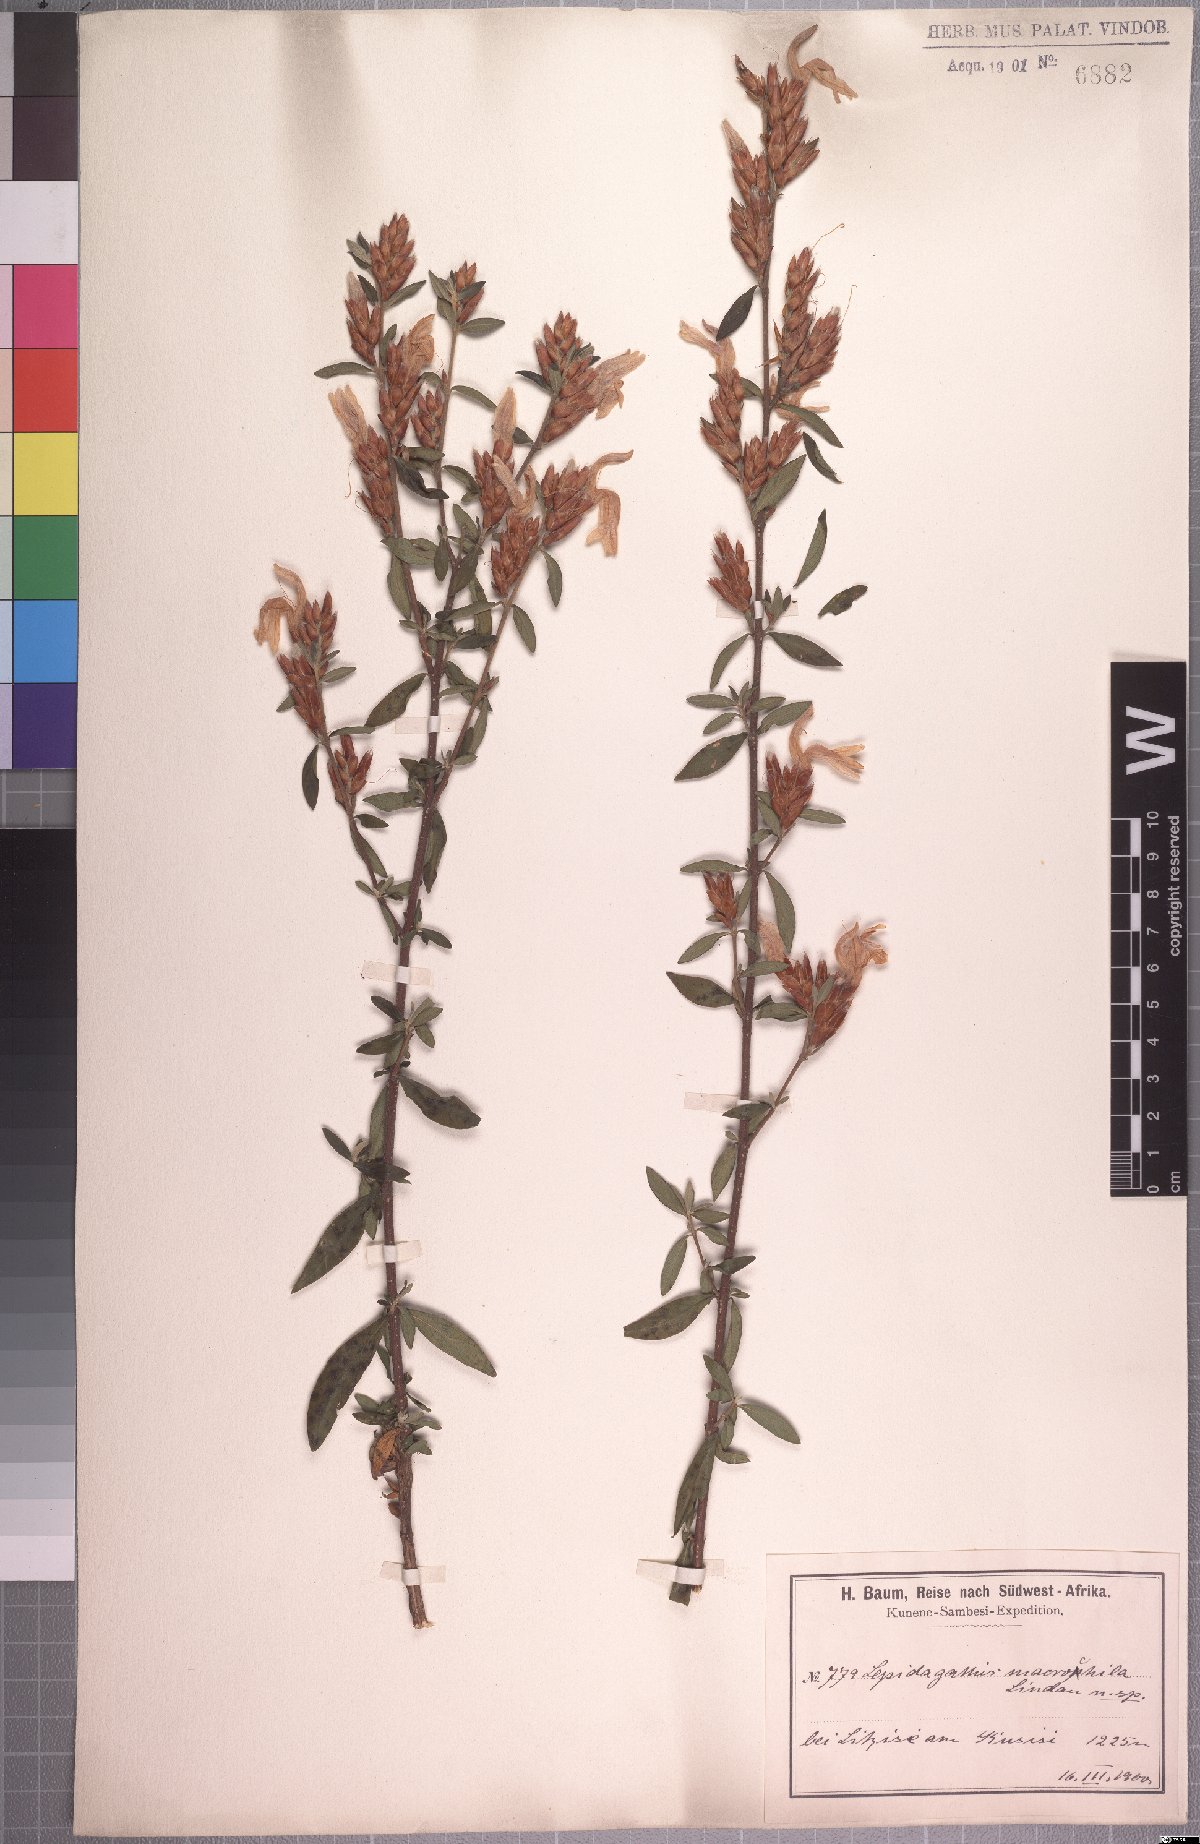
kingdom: Plantae
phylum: Tracheophyta
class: Magnoliopsida
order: Lamiales
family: Acanthaceae
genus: Lepidagathis
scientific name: Lepidagathis macrochila
